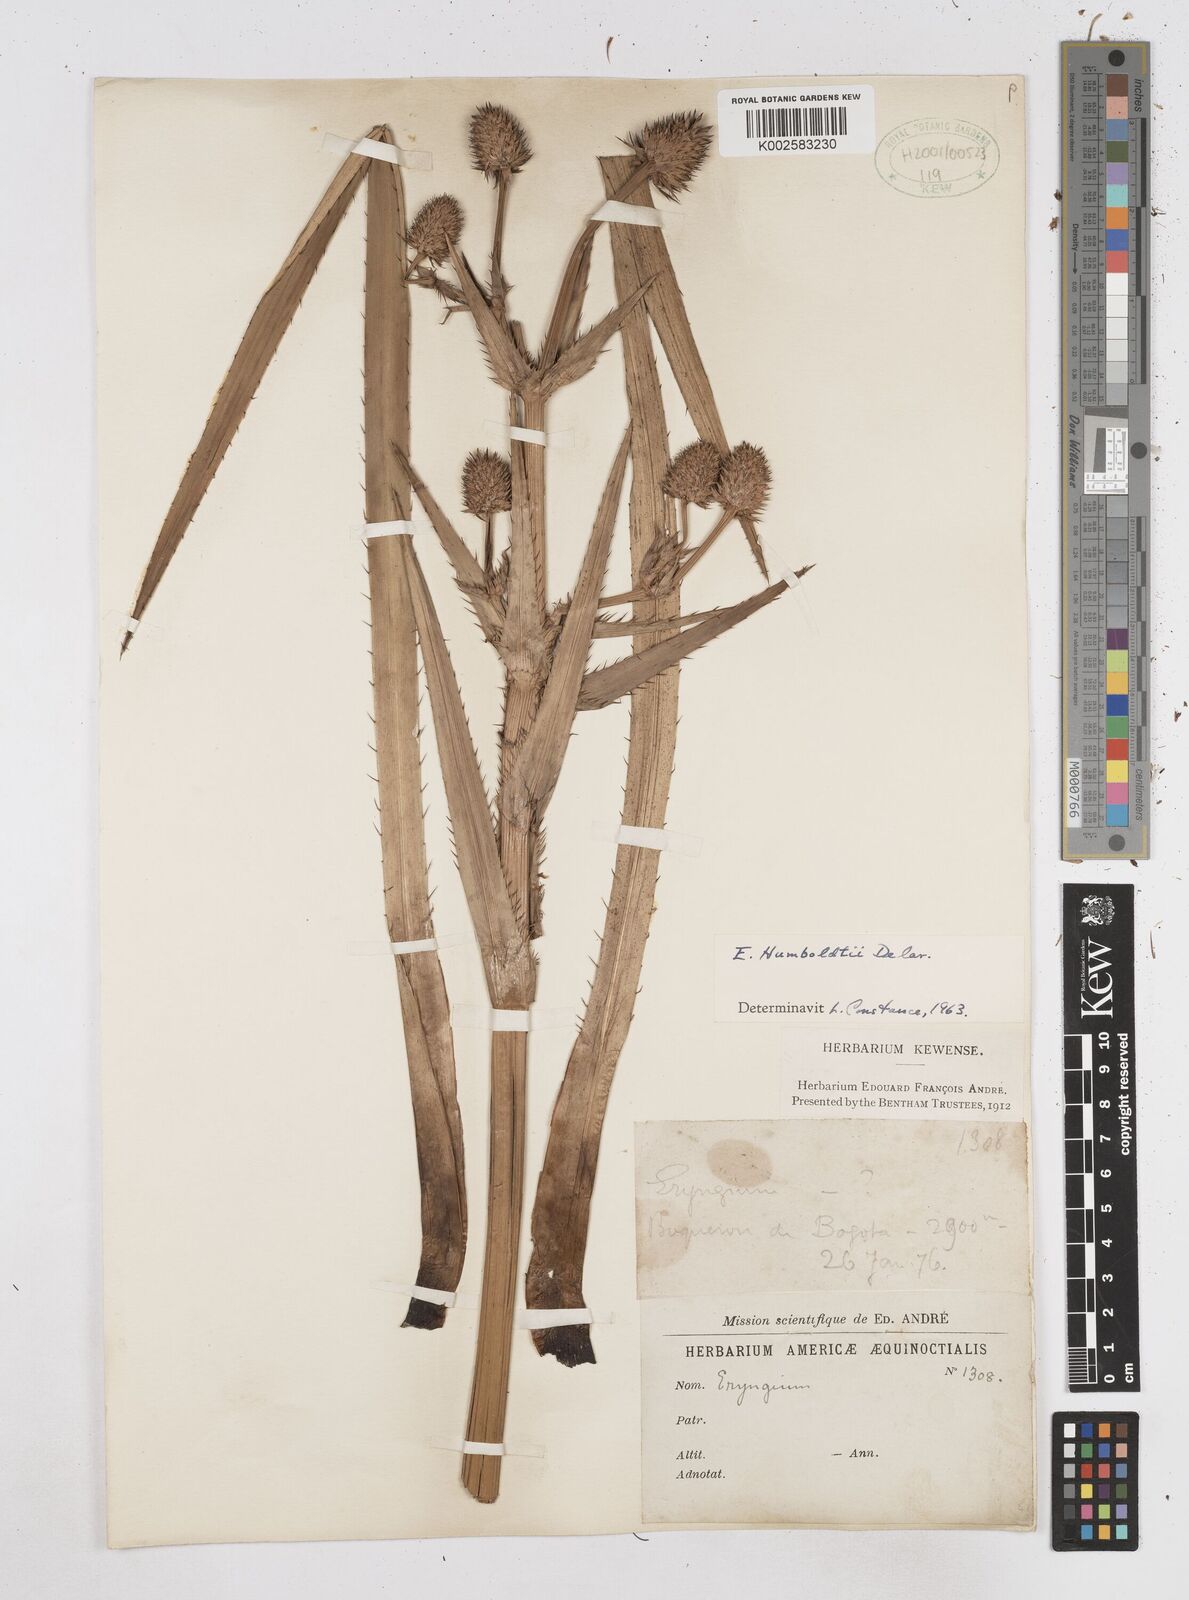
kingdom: Plantae
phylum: Tracheophyta
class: Magnoliopsida
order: Apiales
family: Apiaceae
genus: Eryngium
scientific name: Eryngium humboldtii
